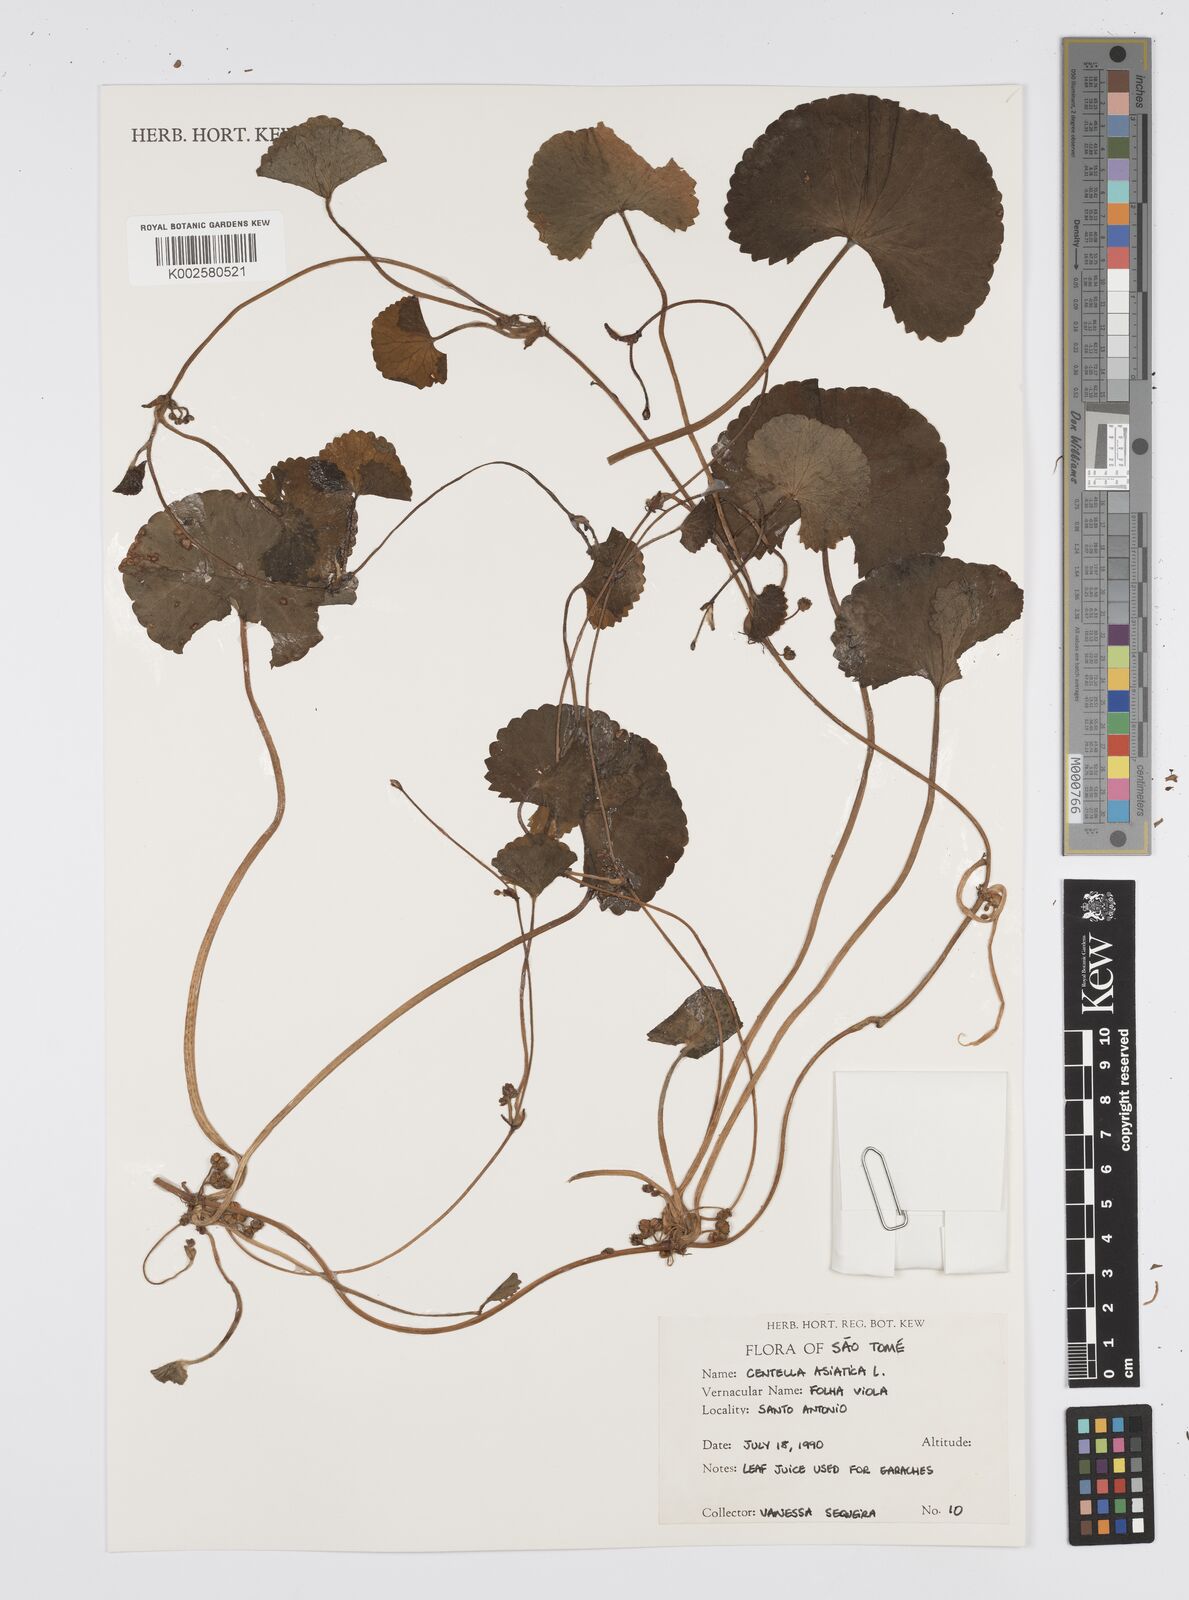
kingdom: Plantae
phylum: Tracheophyta
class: Magnoliopsida
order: Apiales
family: Apiaceae
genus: Centella
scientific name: Centella asiatica
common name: Spadeleaf
